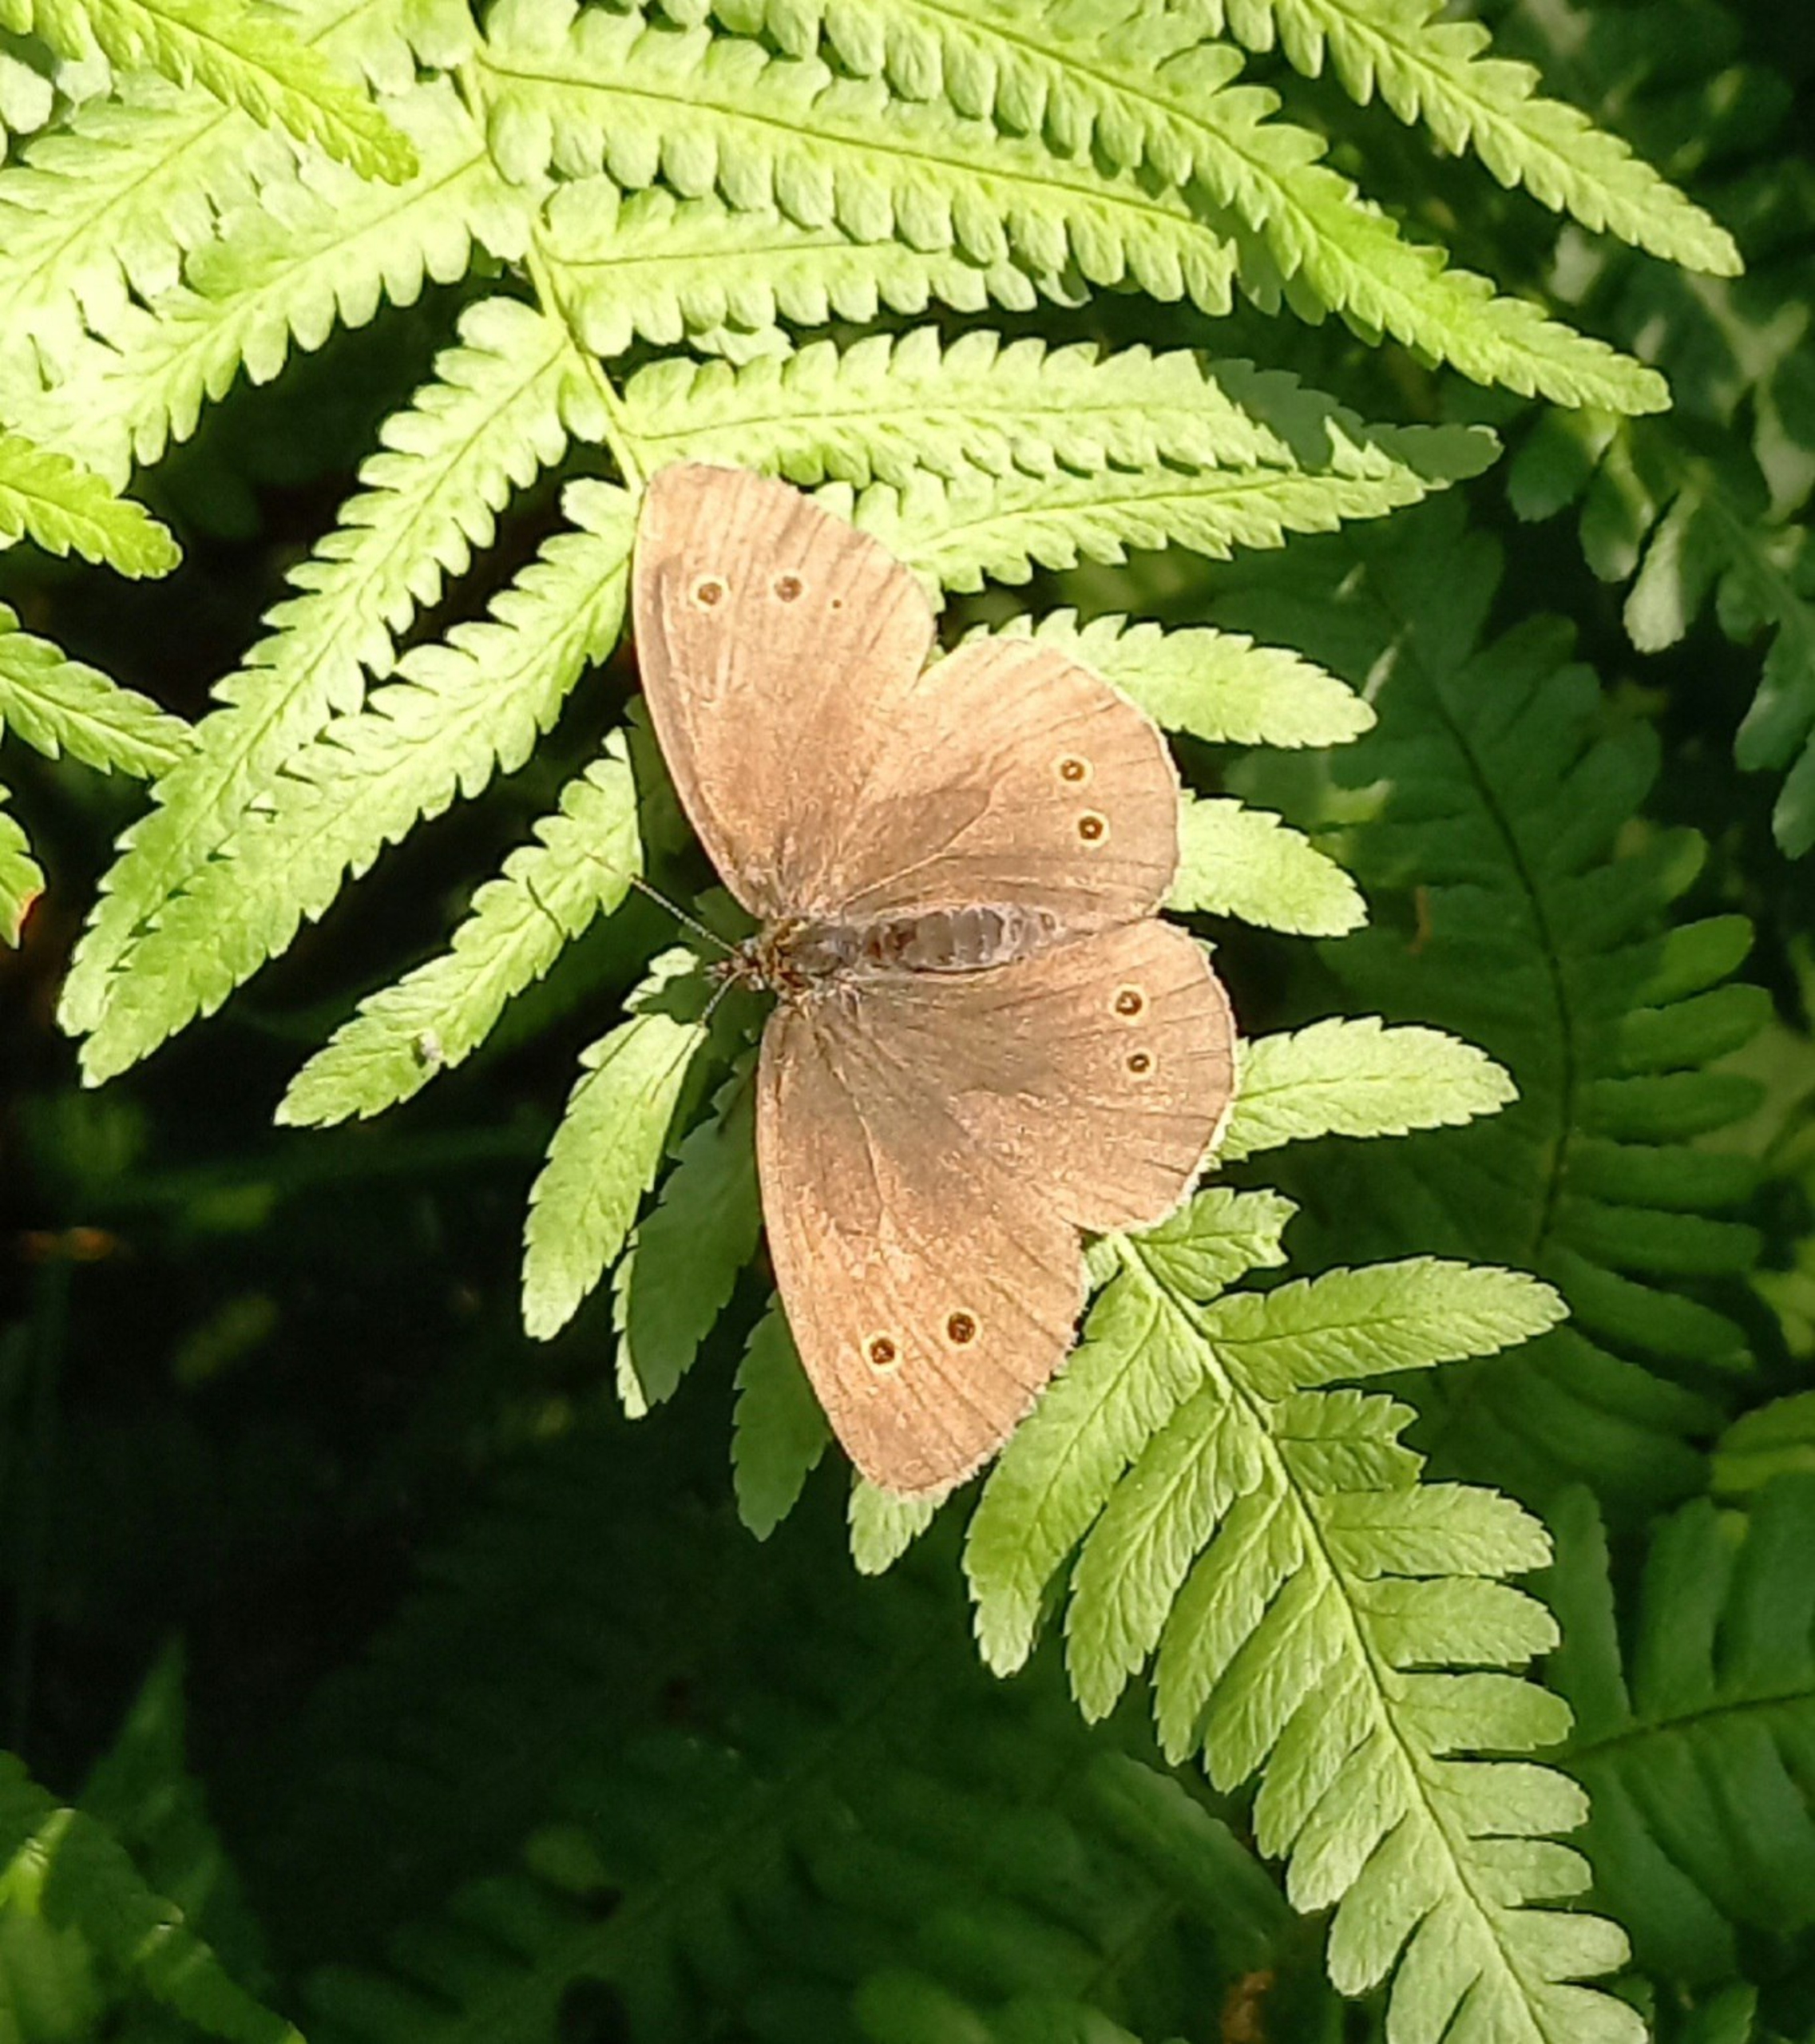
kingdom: Animalia
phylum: Arthropoda
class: Insecta
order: Lepidoptera
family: Nymphalidae
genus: Aphantopus
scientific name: Aphantopus hyperantus
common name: Engrandøje
